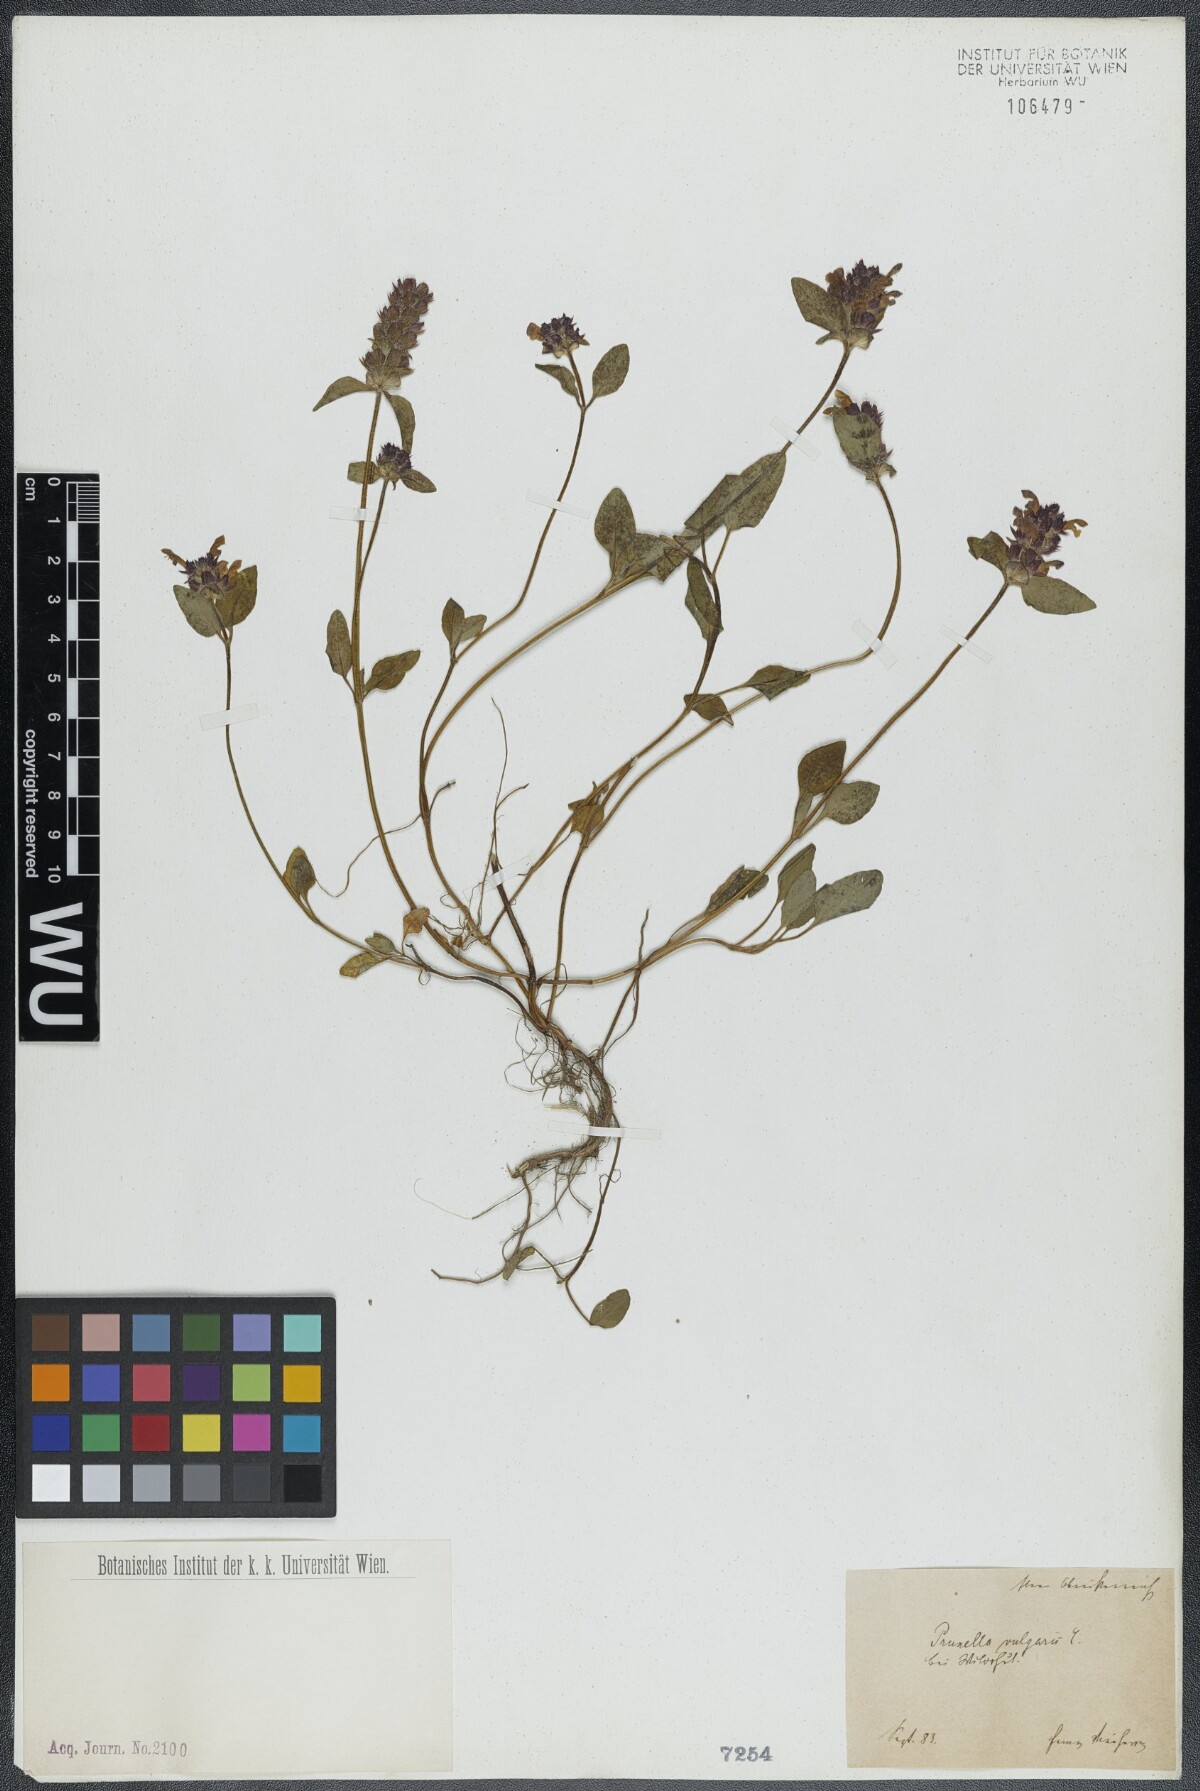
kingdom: Plantae
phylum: Tracheophyta
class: Magnoliopsida
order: Lamiales
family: Lamiaceae
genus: Prunella
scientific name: Prunella vulgaris
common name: Heal-all
